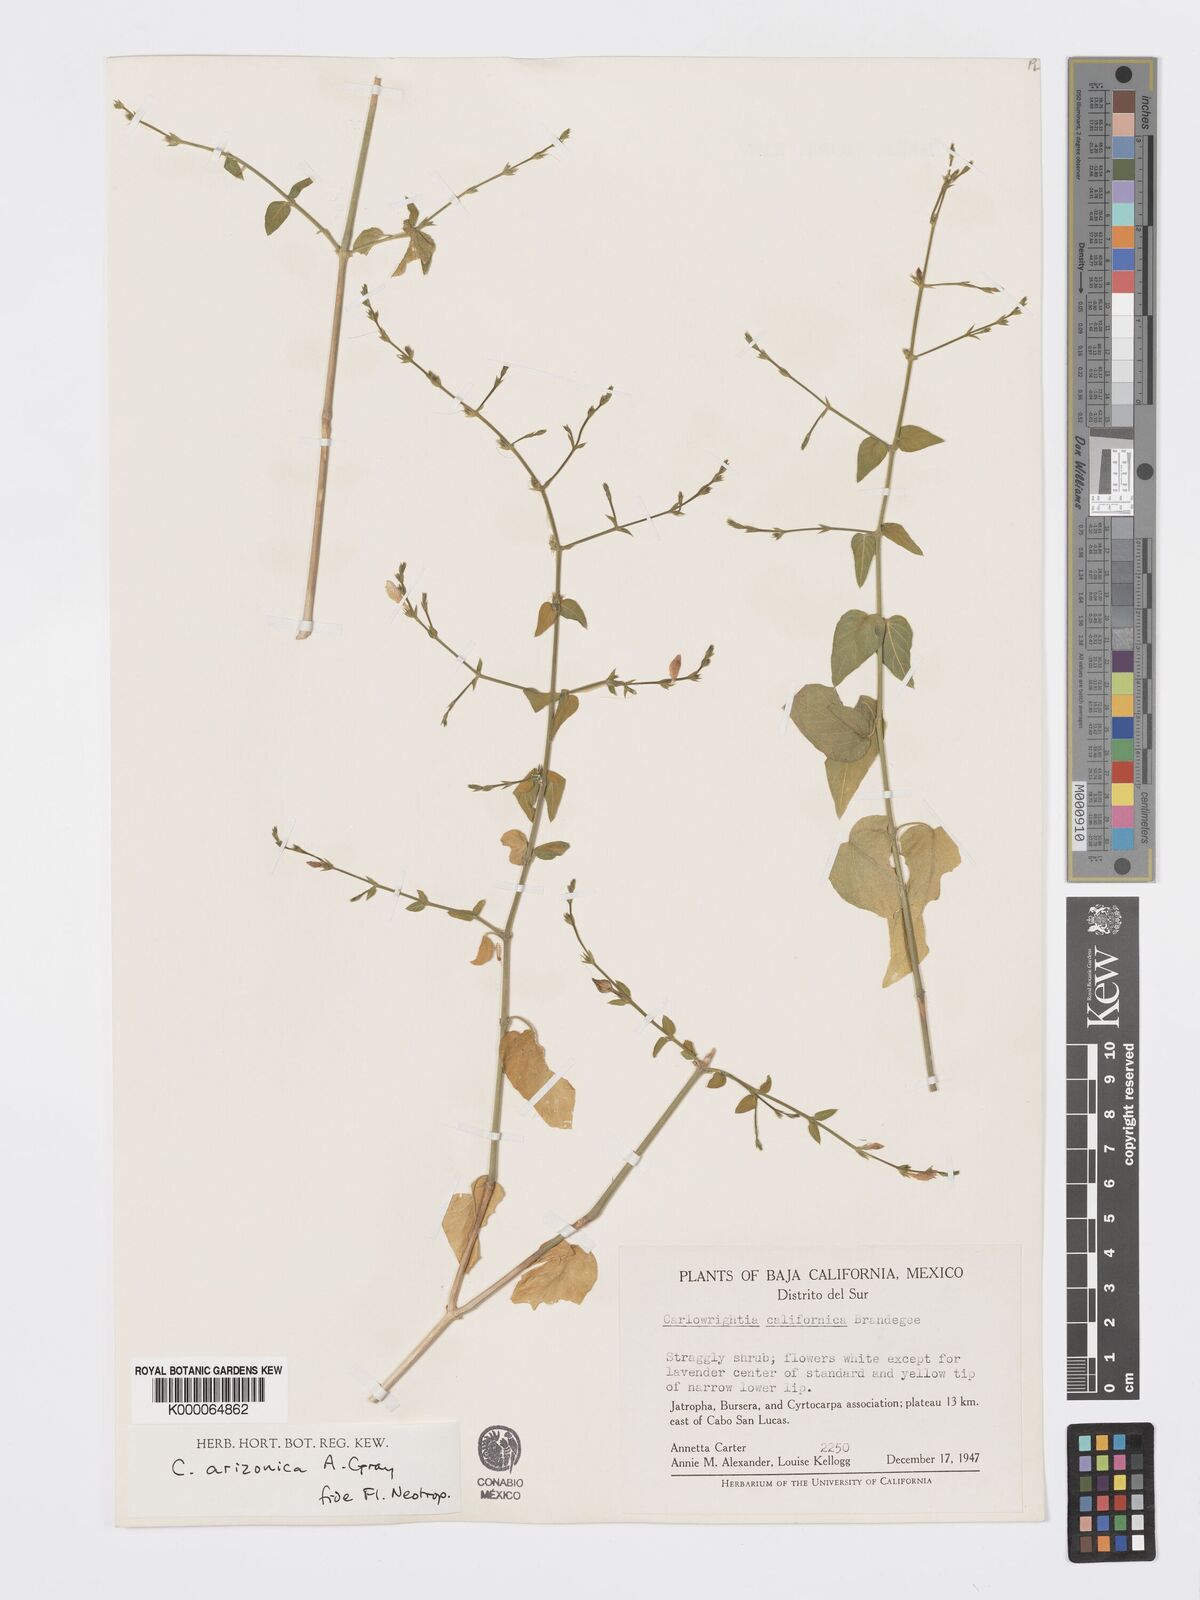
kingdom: Plantae
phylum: Tracheophyta
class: Magnoliopsida
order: Lamiales
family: Acanthaceae
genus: Carlowrightia
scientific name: Carlowrightia arizonica
